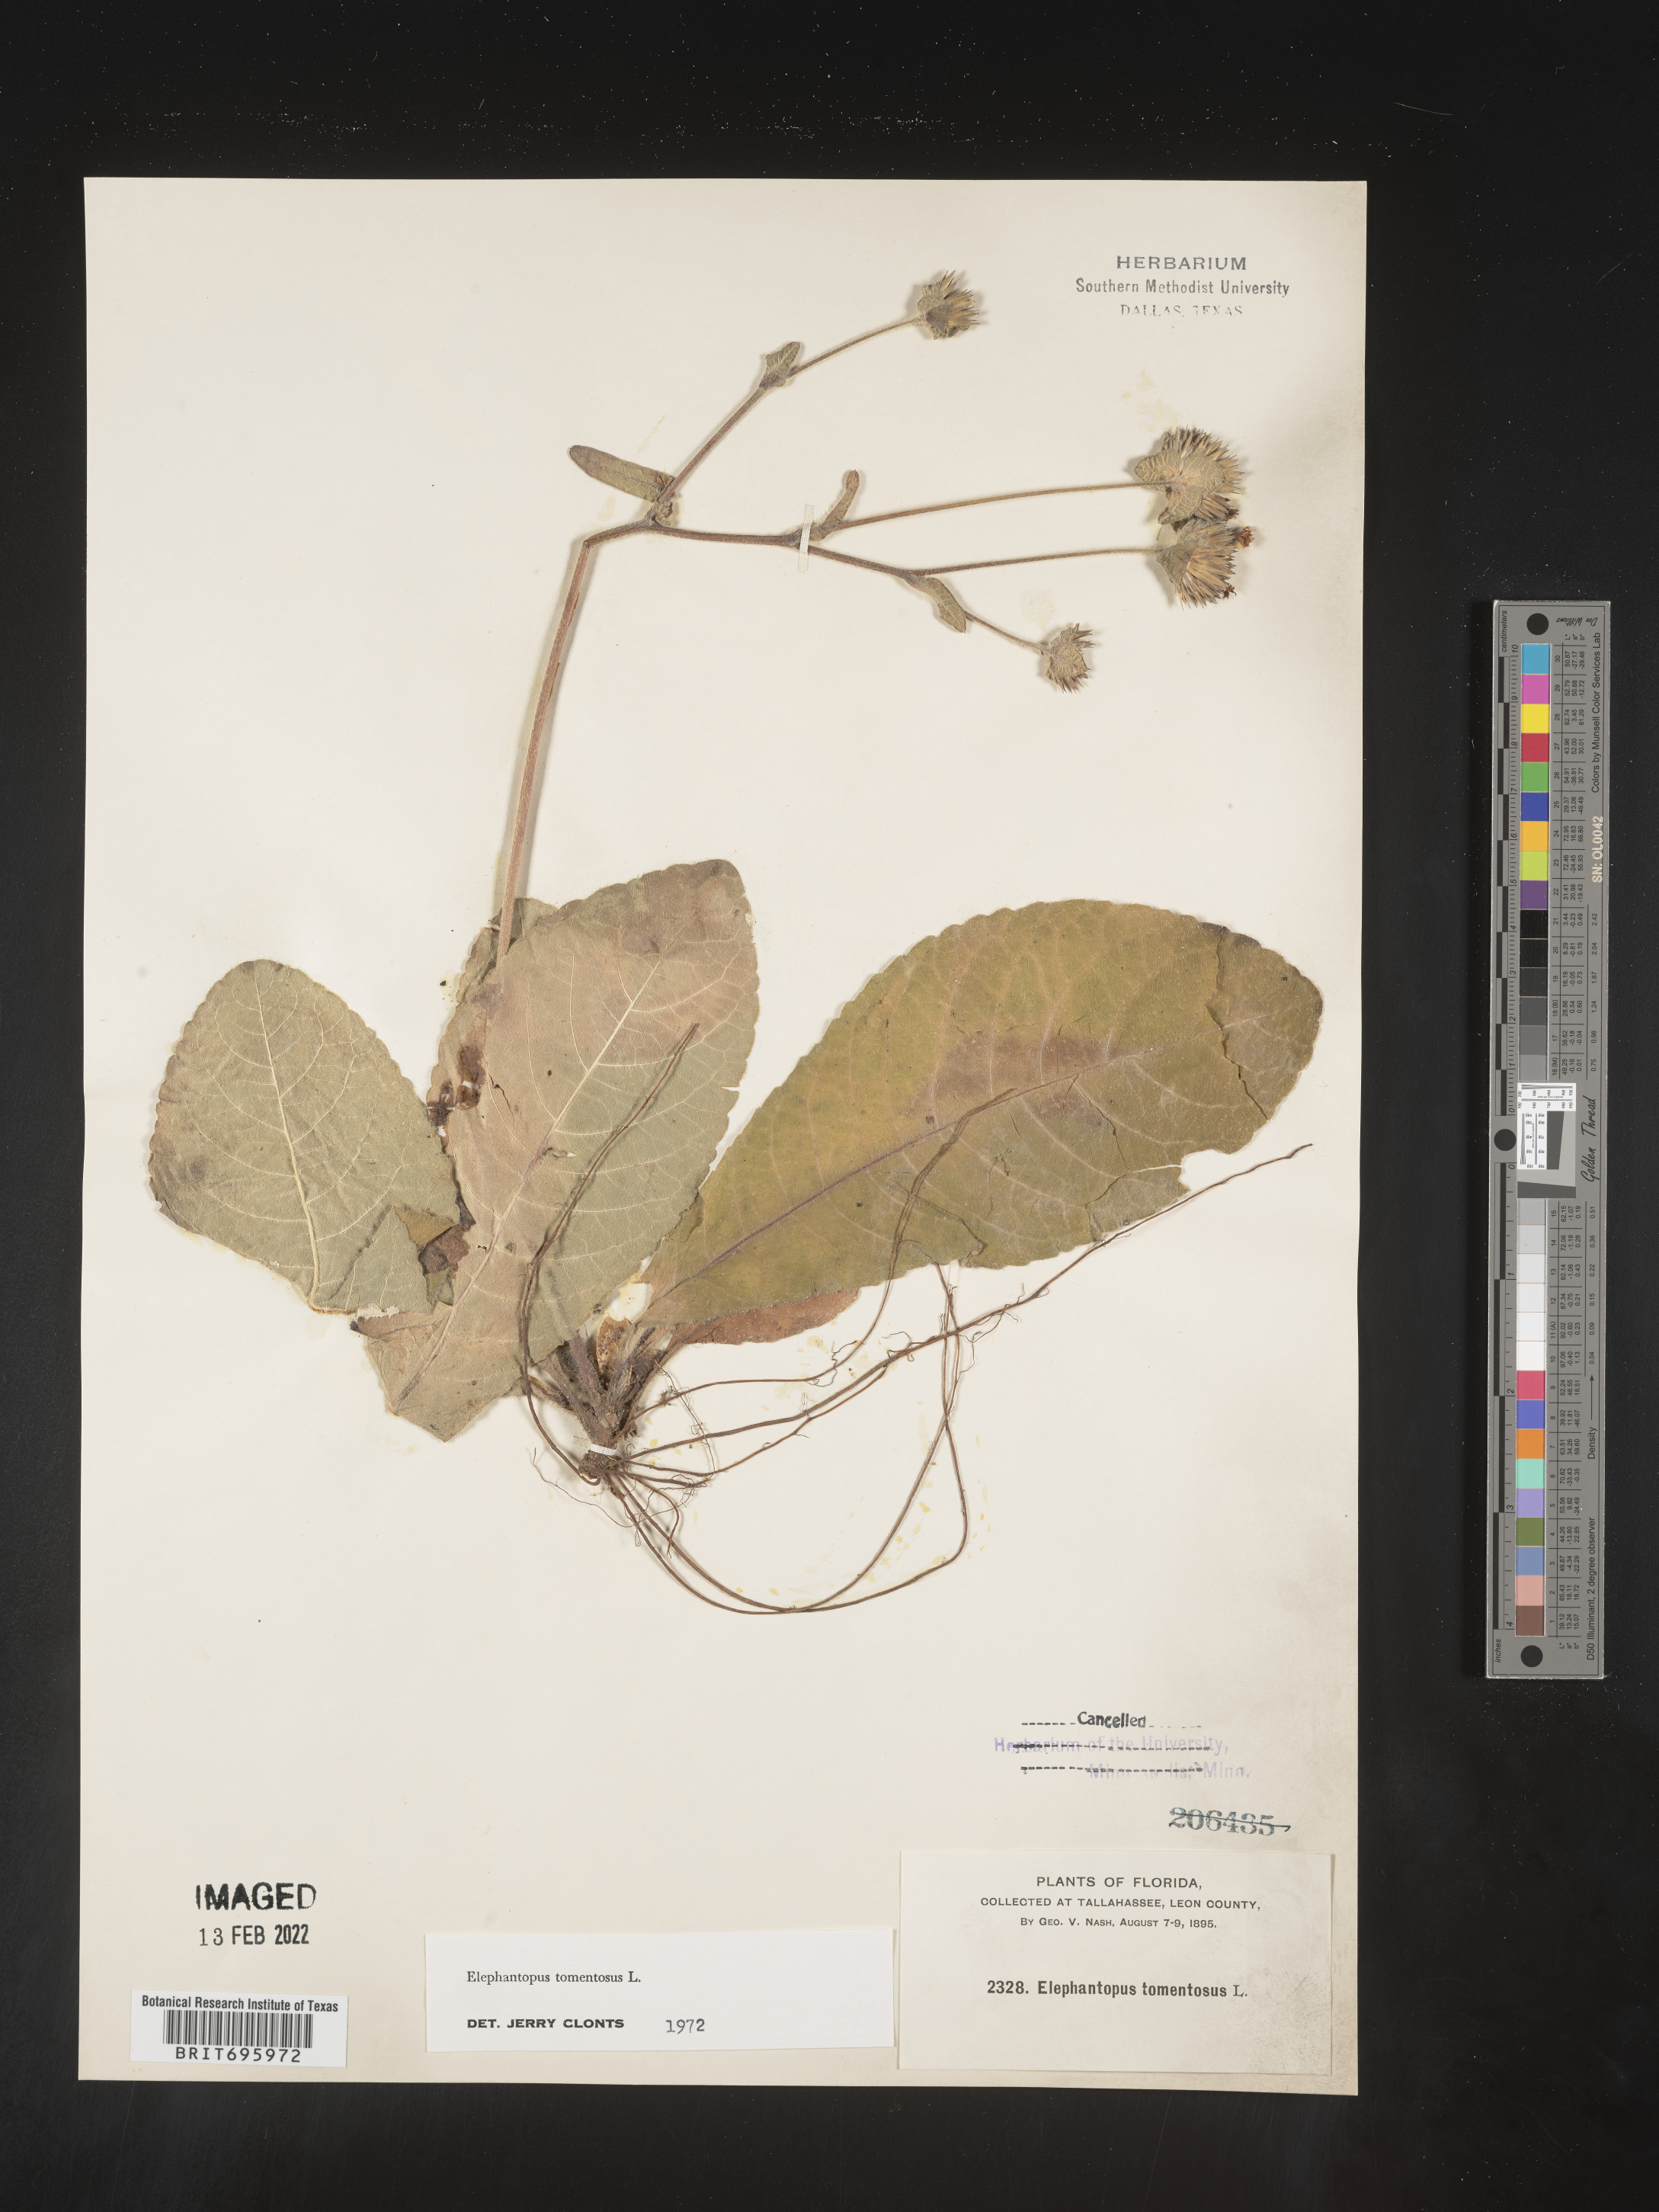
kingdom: Plantae
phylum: Tracheophyta
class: Magnoliopsida
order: Asterales
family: Asteraceae
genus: Elephantopus
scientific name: Elephantopus tomentosus
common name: Tobacco-weed
